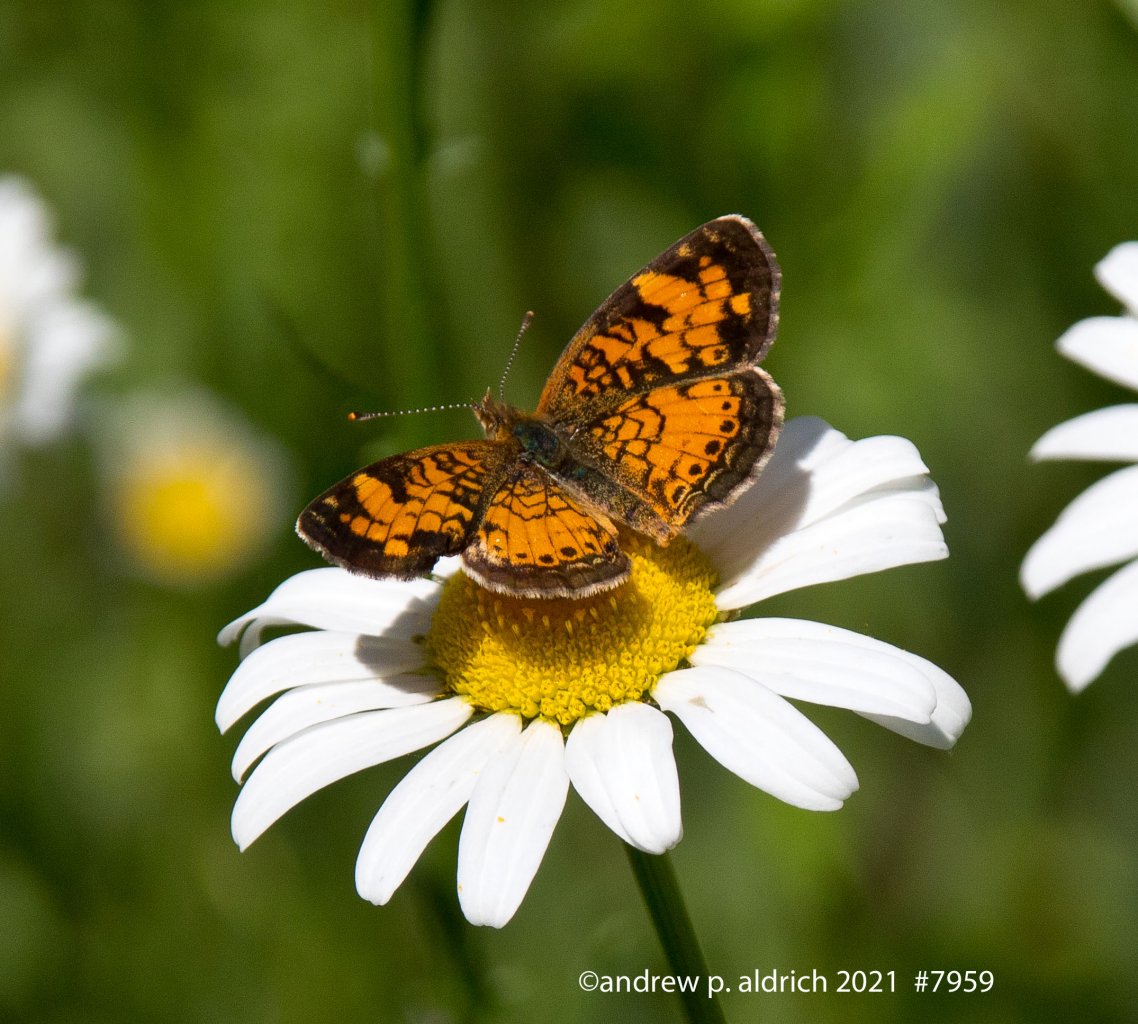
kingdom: Animalia
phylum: Arthropoda
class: Insecta
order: Lepidoptera
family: Nymphalidae
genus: Phyciodes
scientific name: Phyciodes
